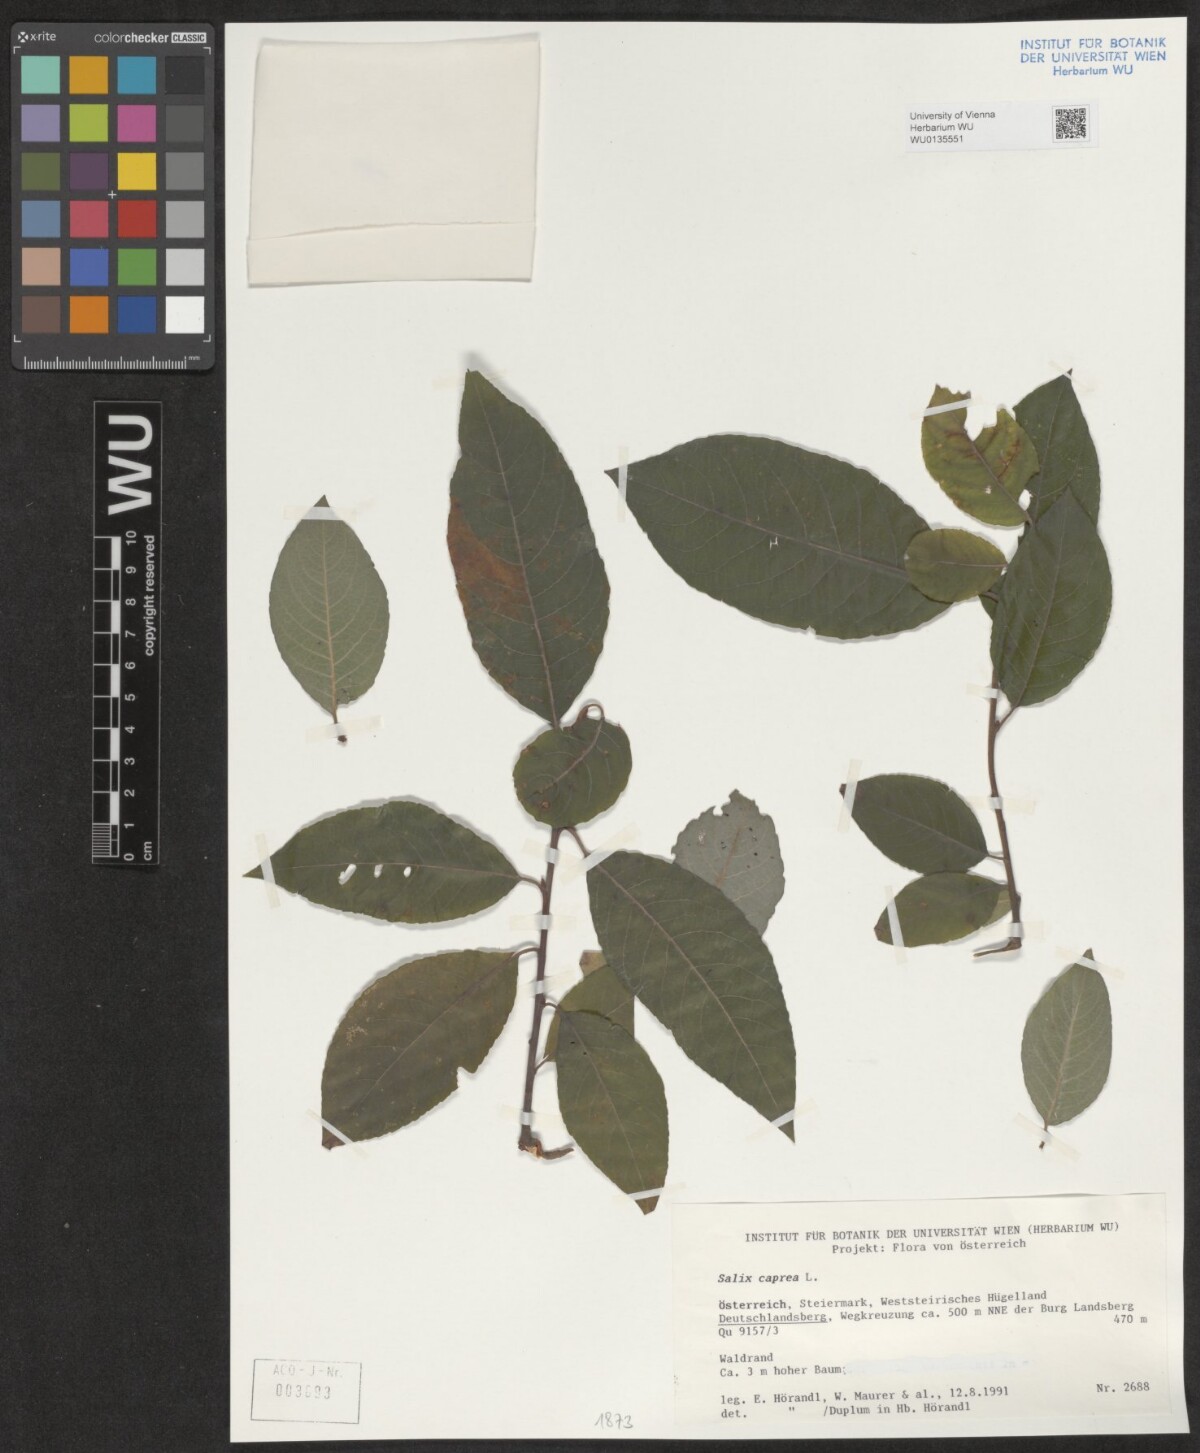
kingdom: Plantae
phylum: Tracheophyta
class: Magnoliopsida
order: Malpighiales
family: Salicaceae
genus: Salix
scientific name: Salix caprea
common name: Goat willow
